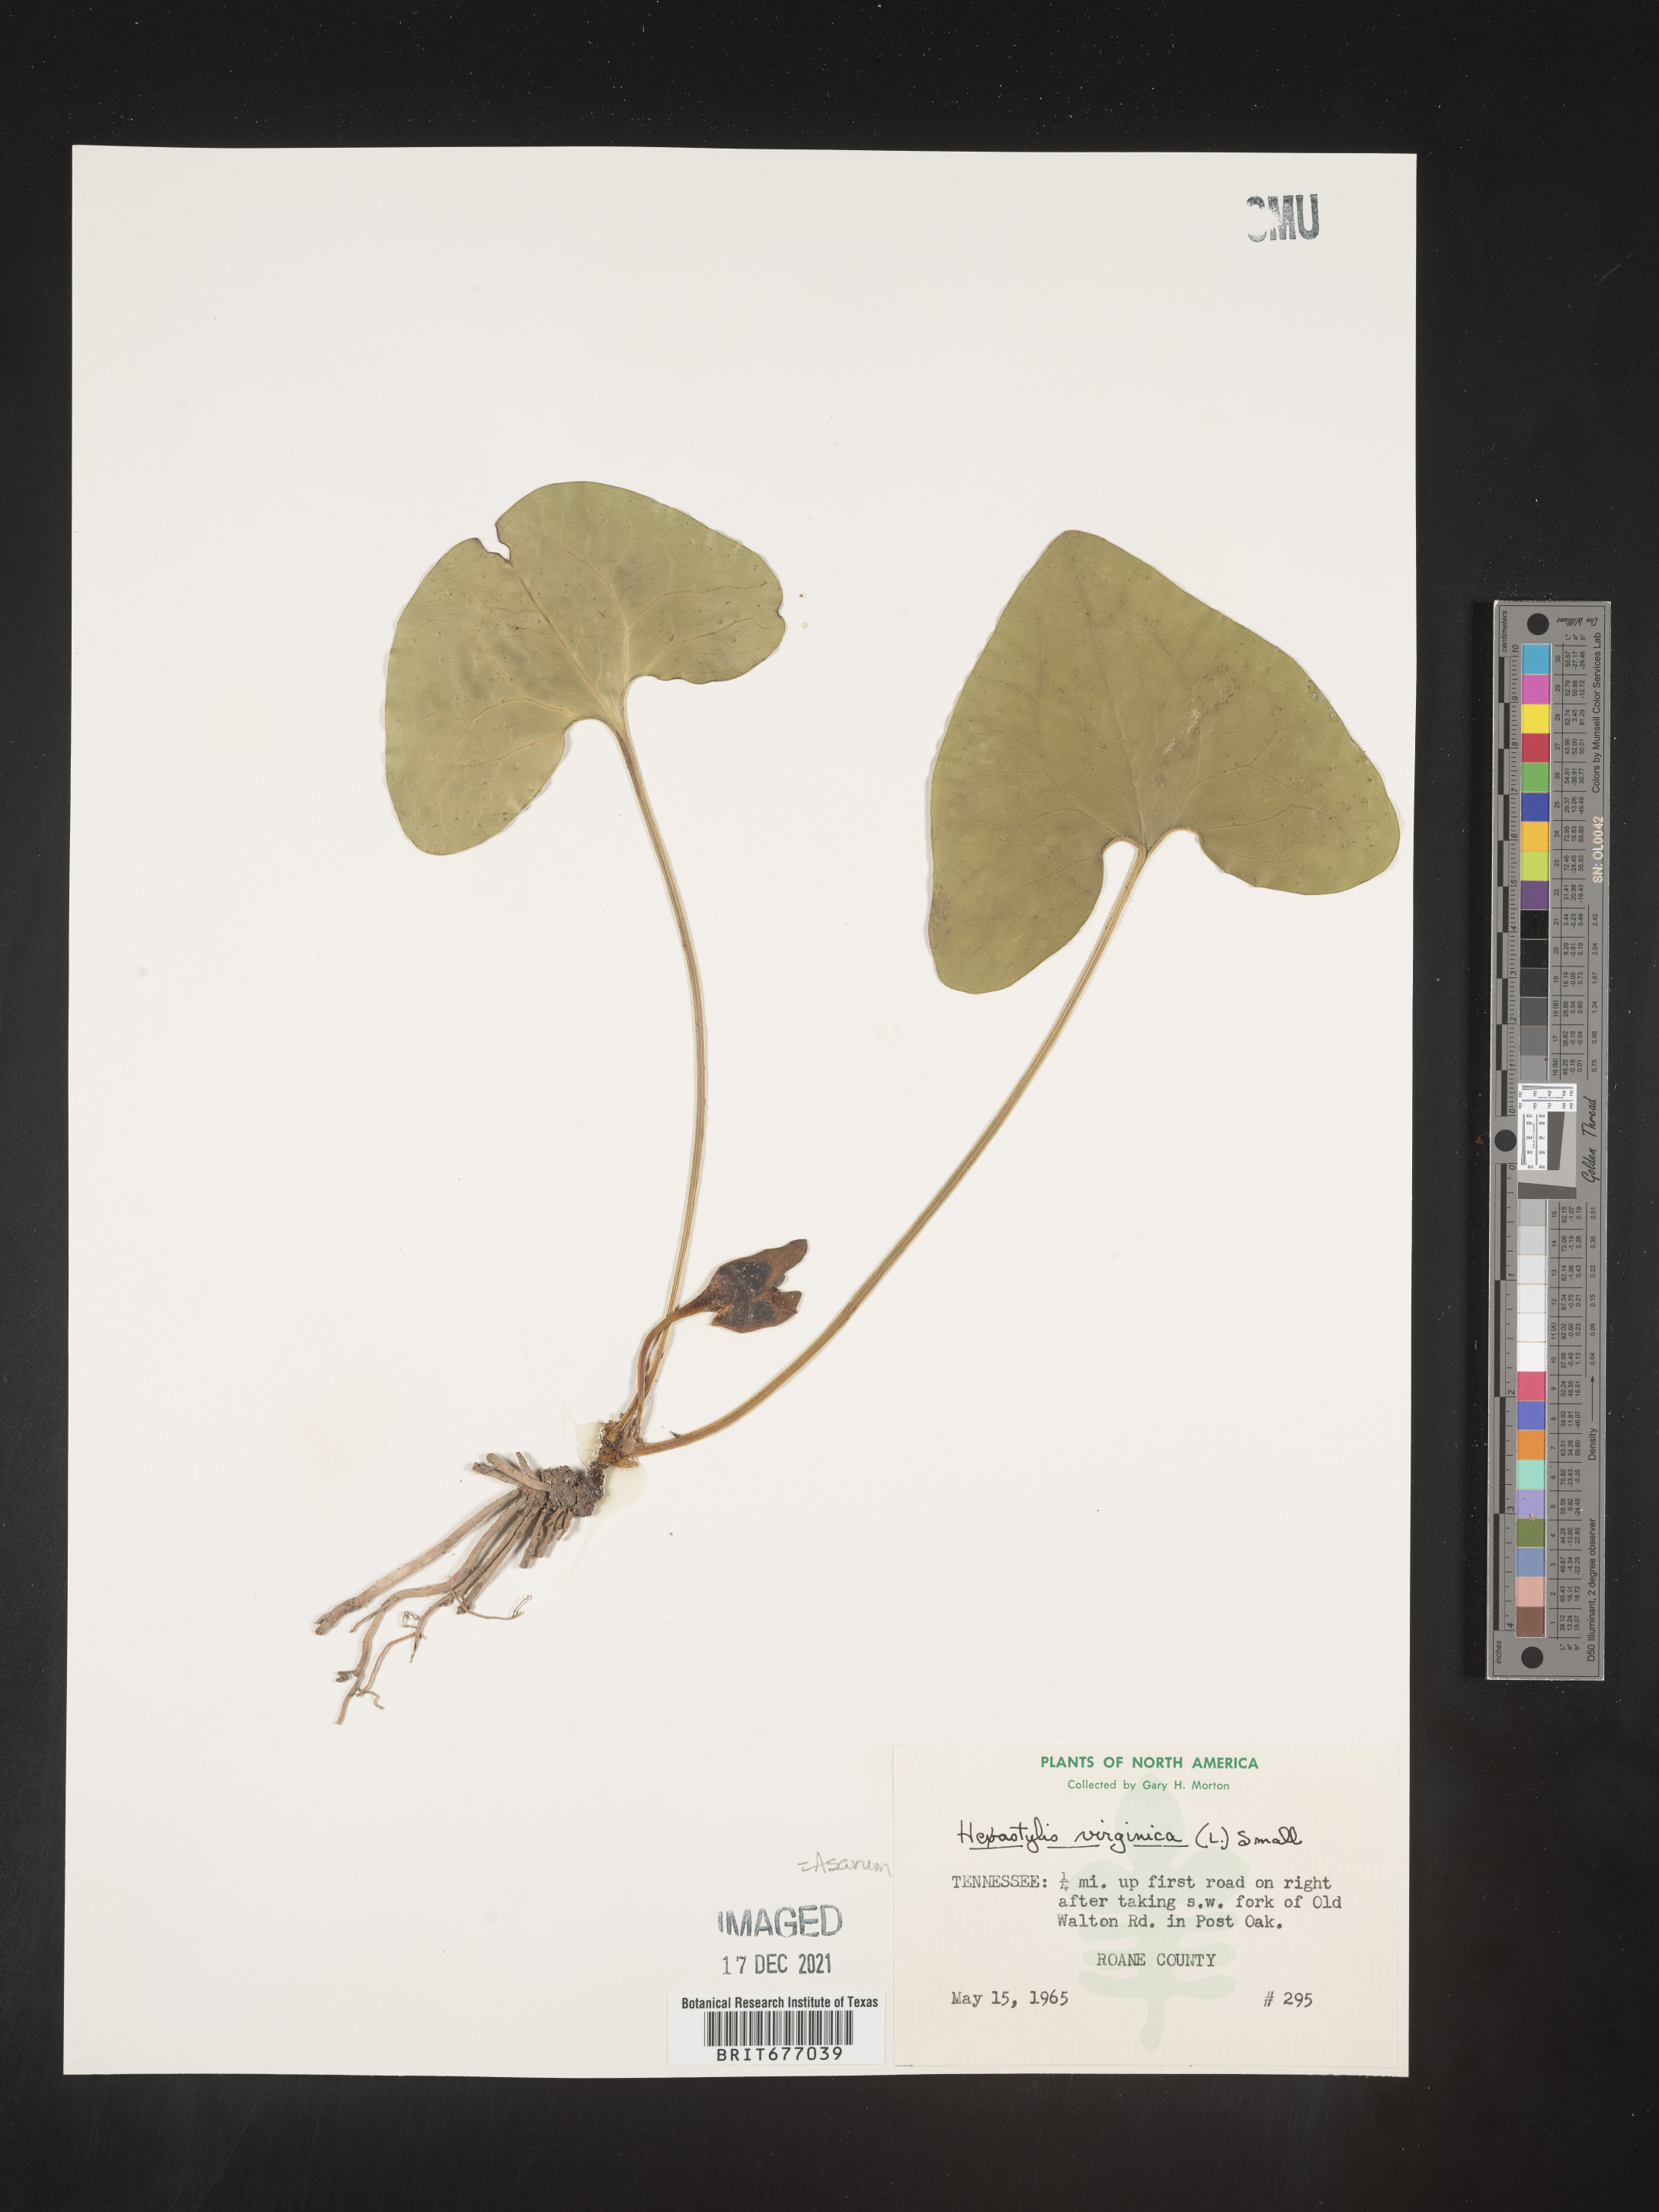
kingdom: Plantae
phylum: Tracheophyta
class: Magnoliopsida
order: Piperales
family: Aristolochiaceae
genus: Asarum
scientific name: Asarum
